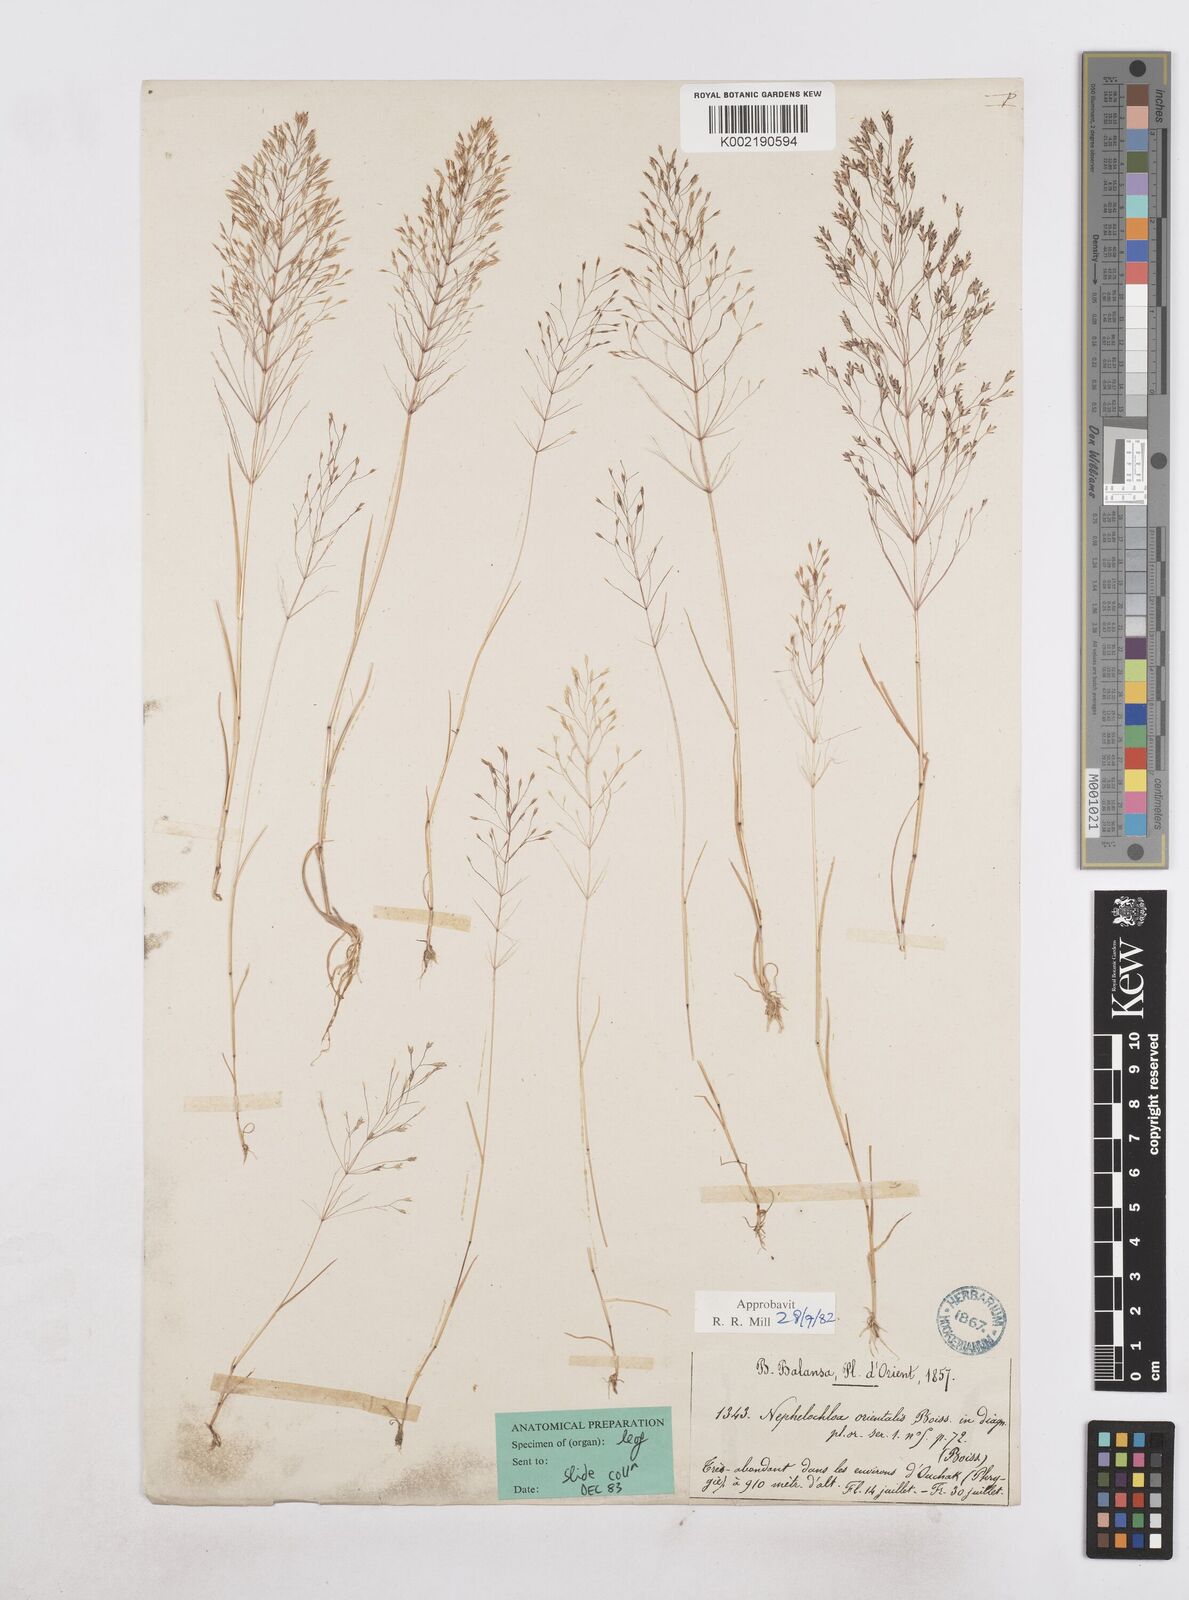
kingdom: Plantae
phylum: Tracheophyta
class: Liliopsida
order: Poales
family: Poaceae
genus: Nephelochloa
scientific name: Nephelochloa orientalis
